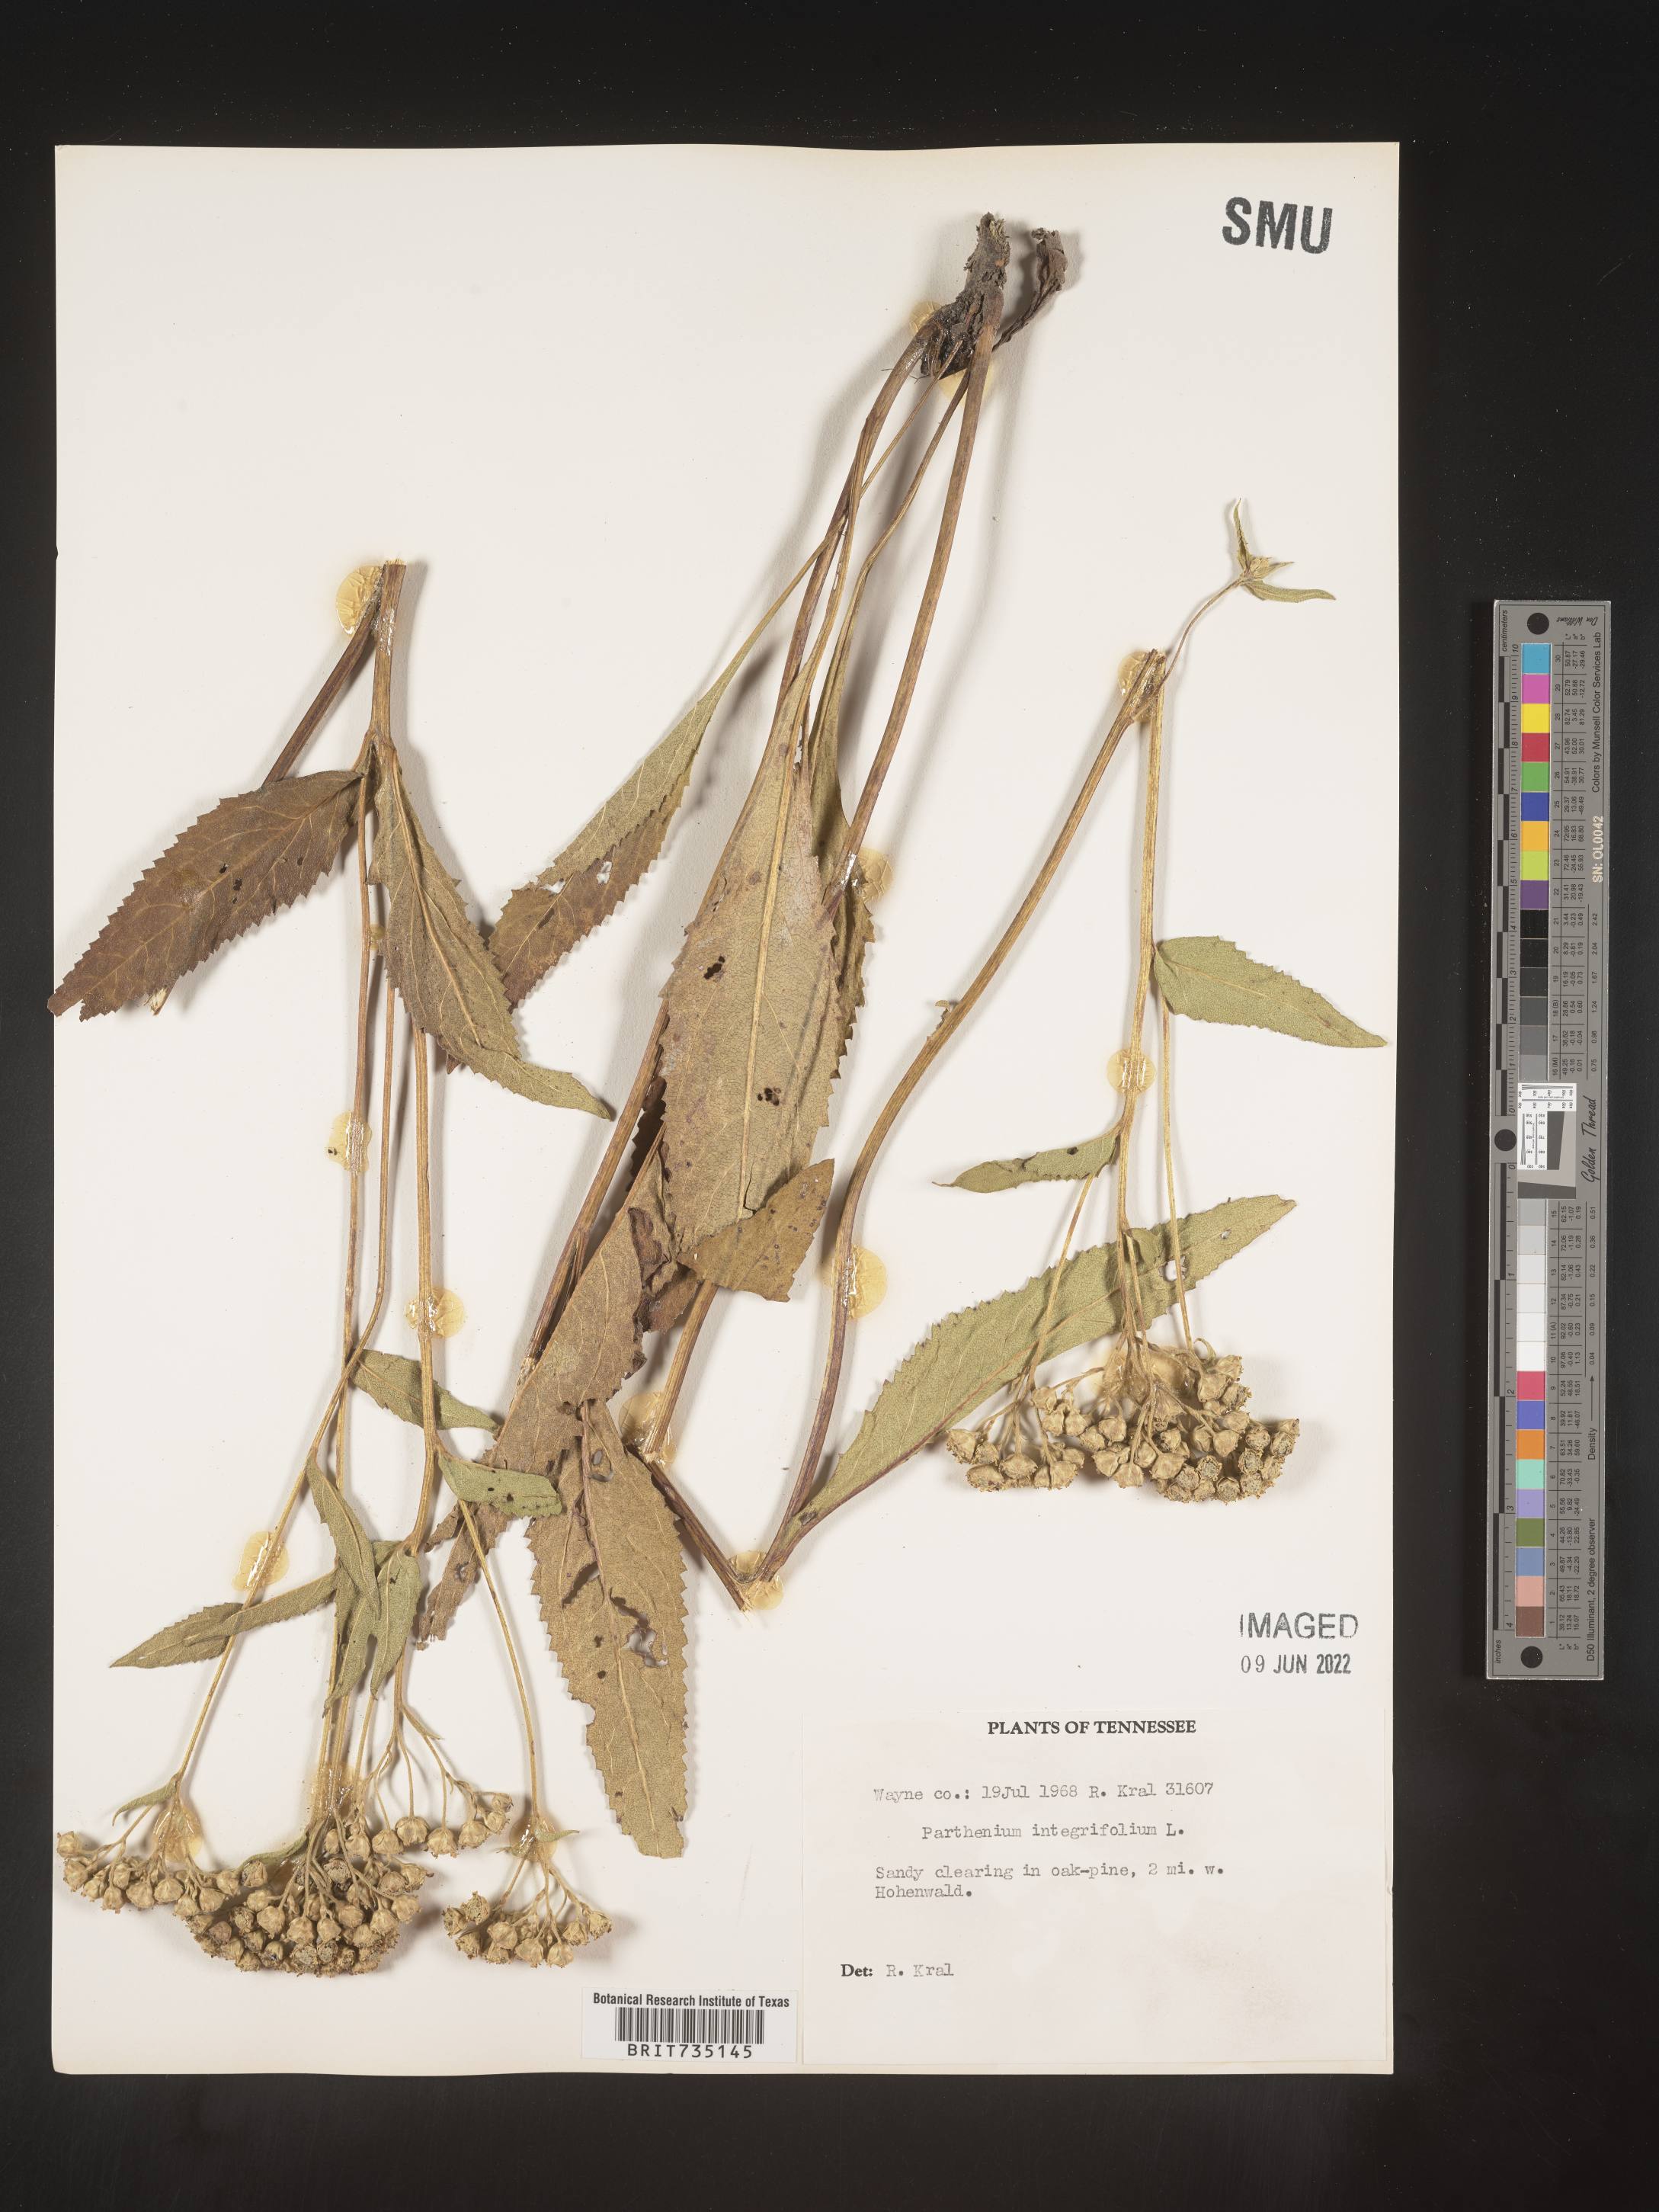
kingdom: Plantae
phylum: Tracheophyta
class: Magnoliopsida
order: Asterales
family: Asteraceae
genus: Parthenium
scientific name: Parthenium integrifolium
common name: American feverfew
